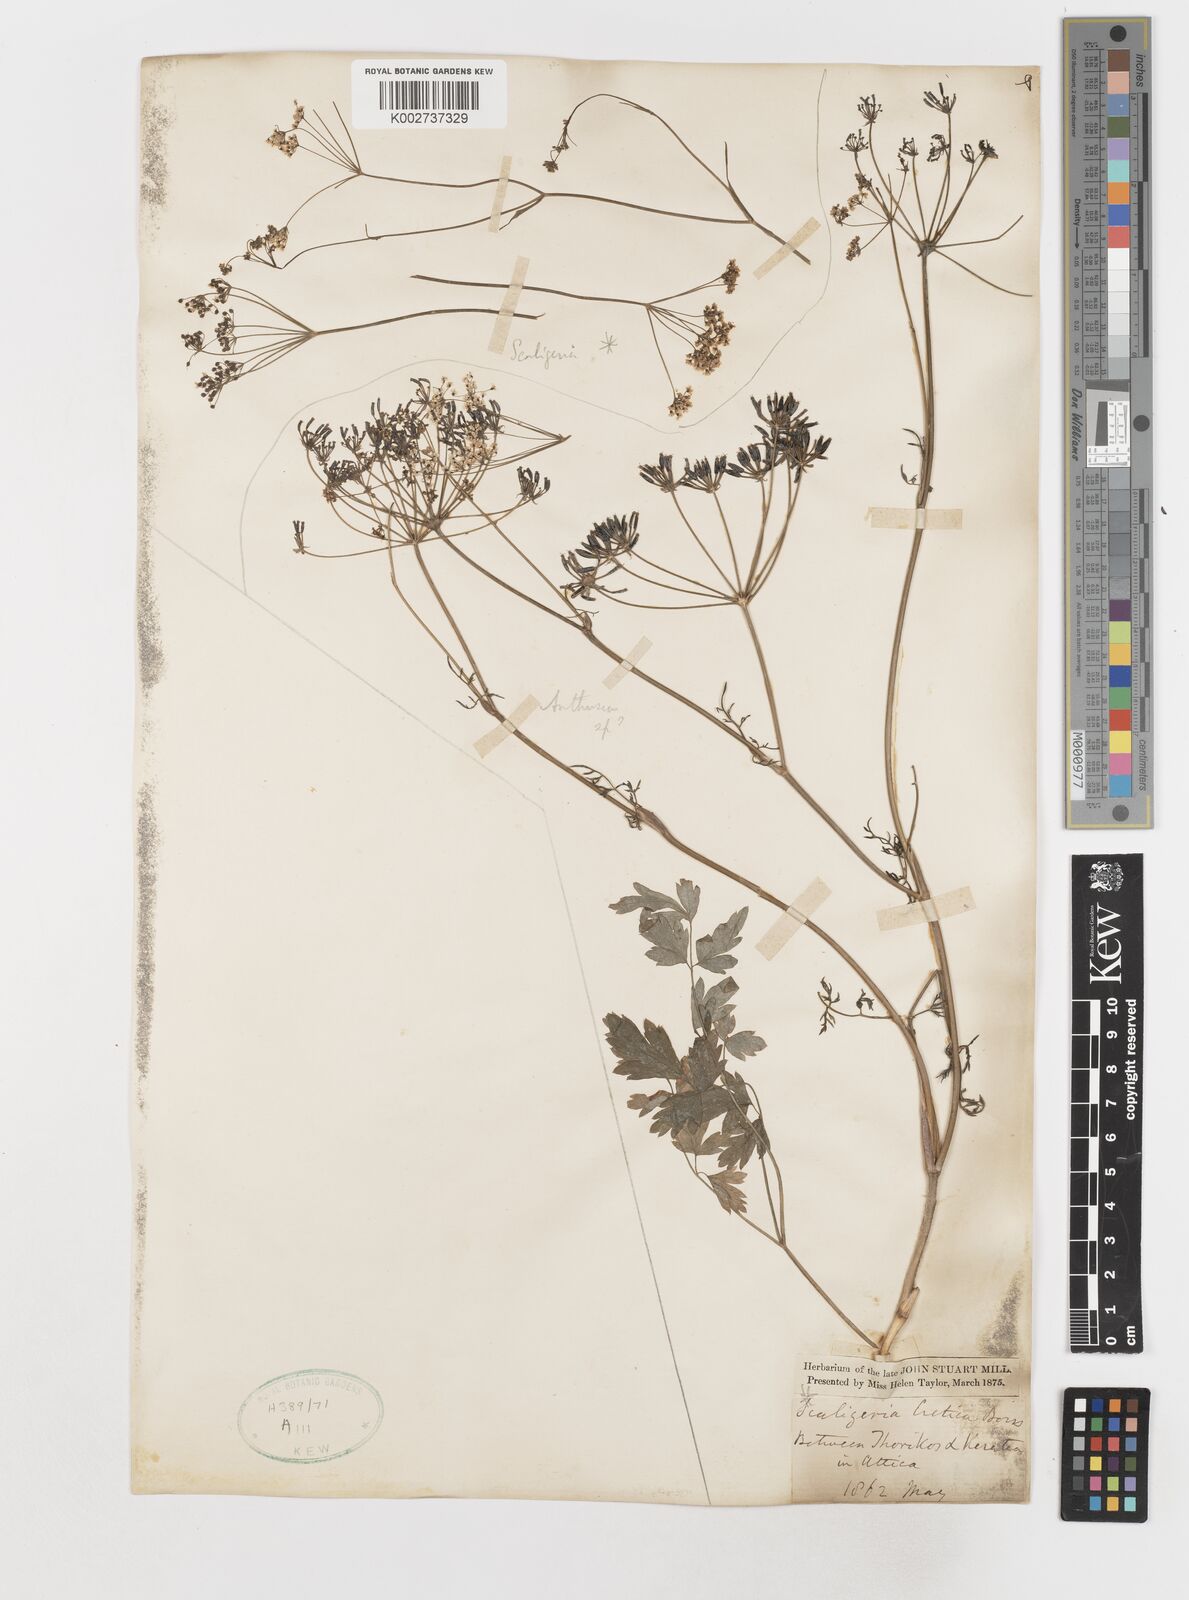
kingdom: Plantae
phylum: Tracheophyta
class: Magnoliopsida
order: Apiales
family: Apiaceae
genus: Scaligeria
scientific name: Scaligeria napiformis
